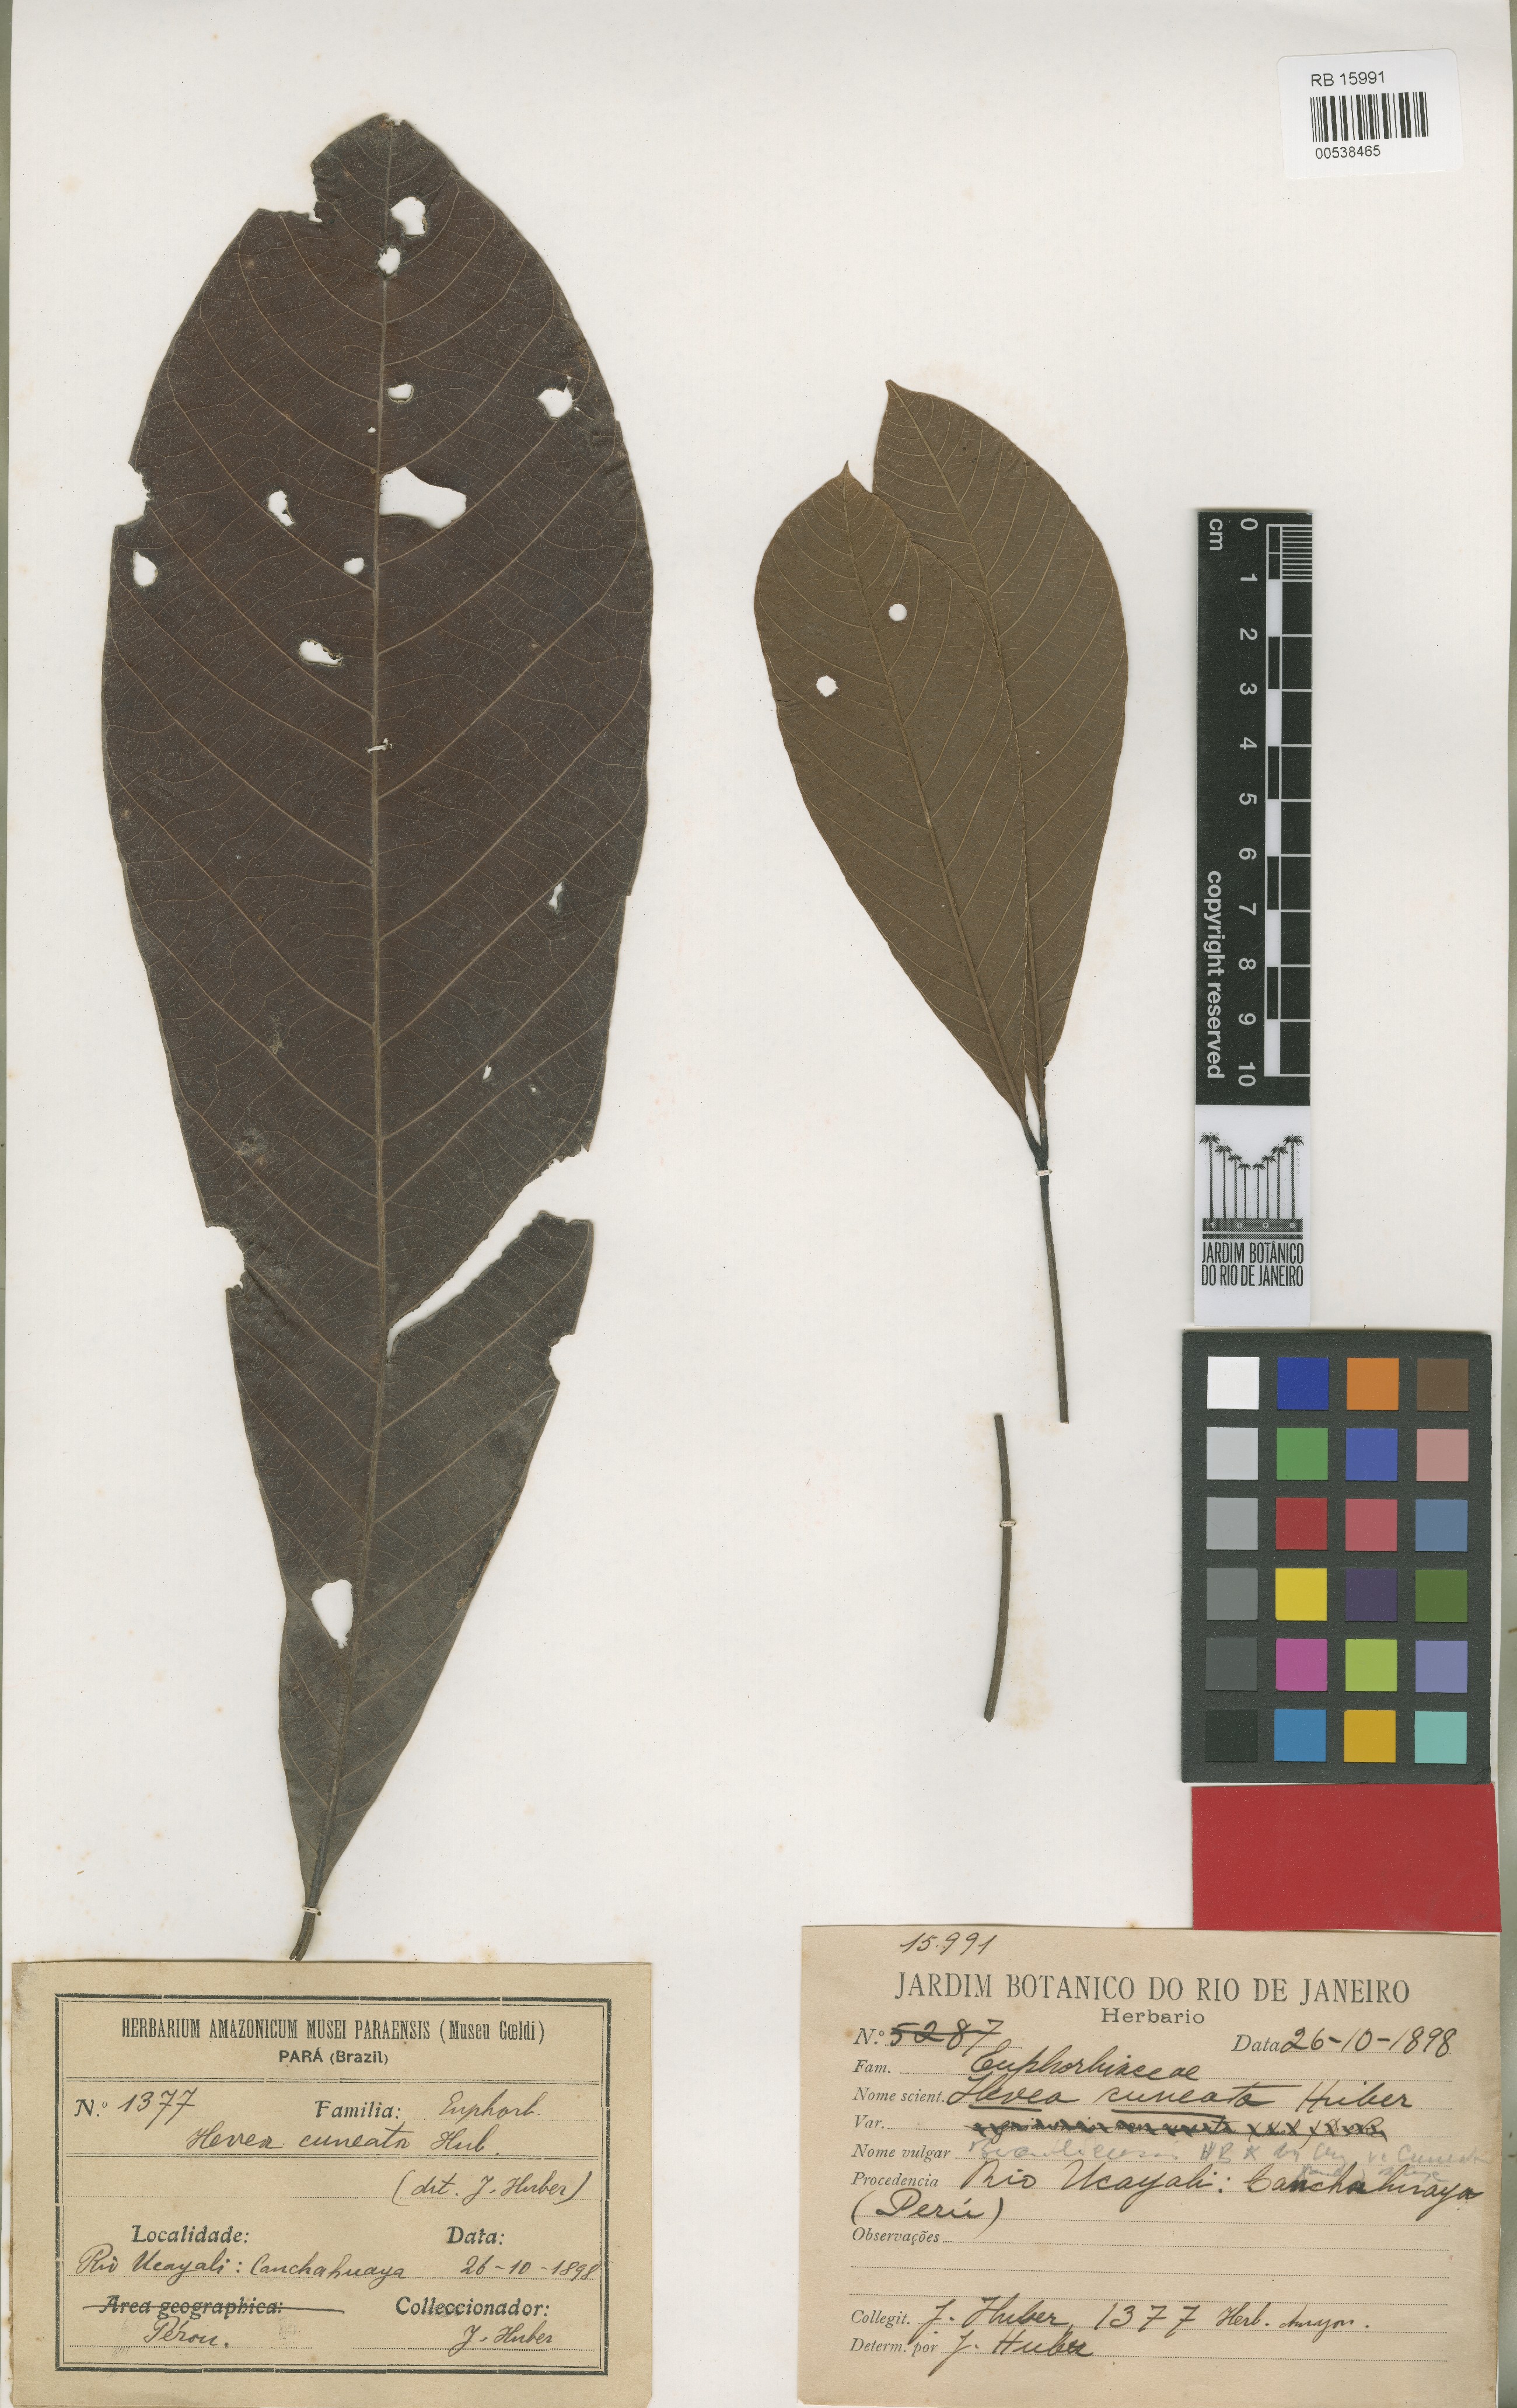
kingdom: Plantae
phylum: Tracheophyta
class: Magnoliopsida
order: Malpighiales
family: Euphorbiaceae
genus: Hevea
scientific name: Hevea guianensis
